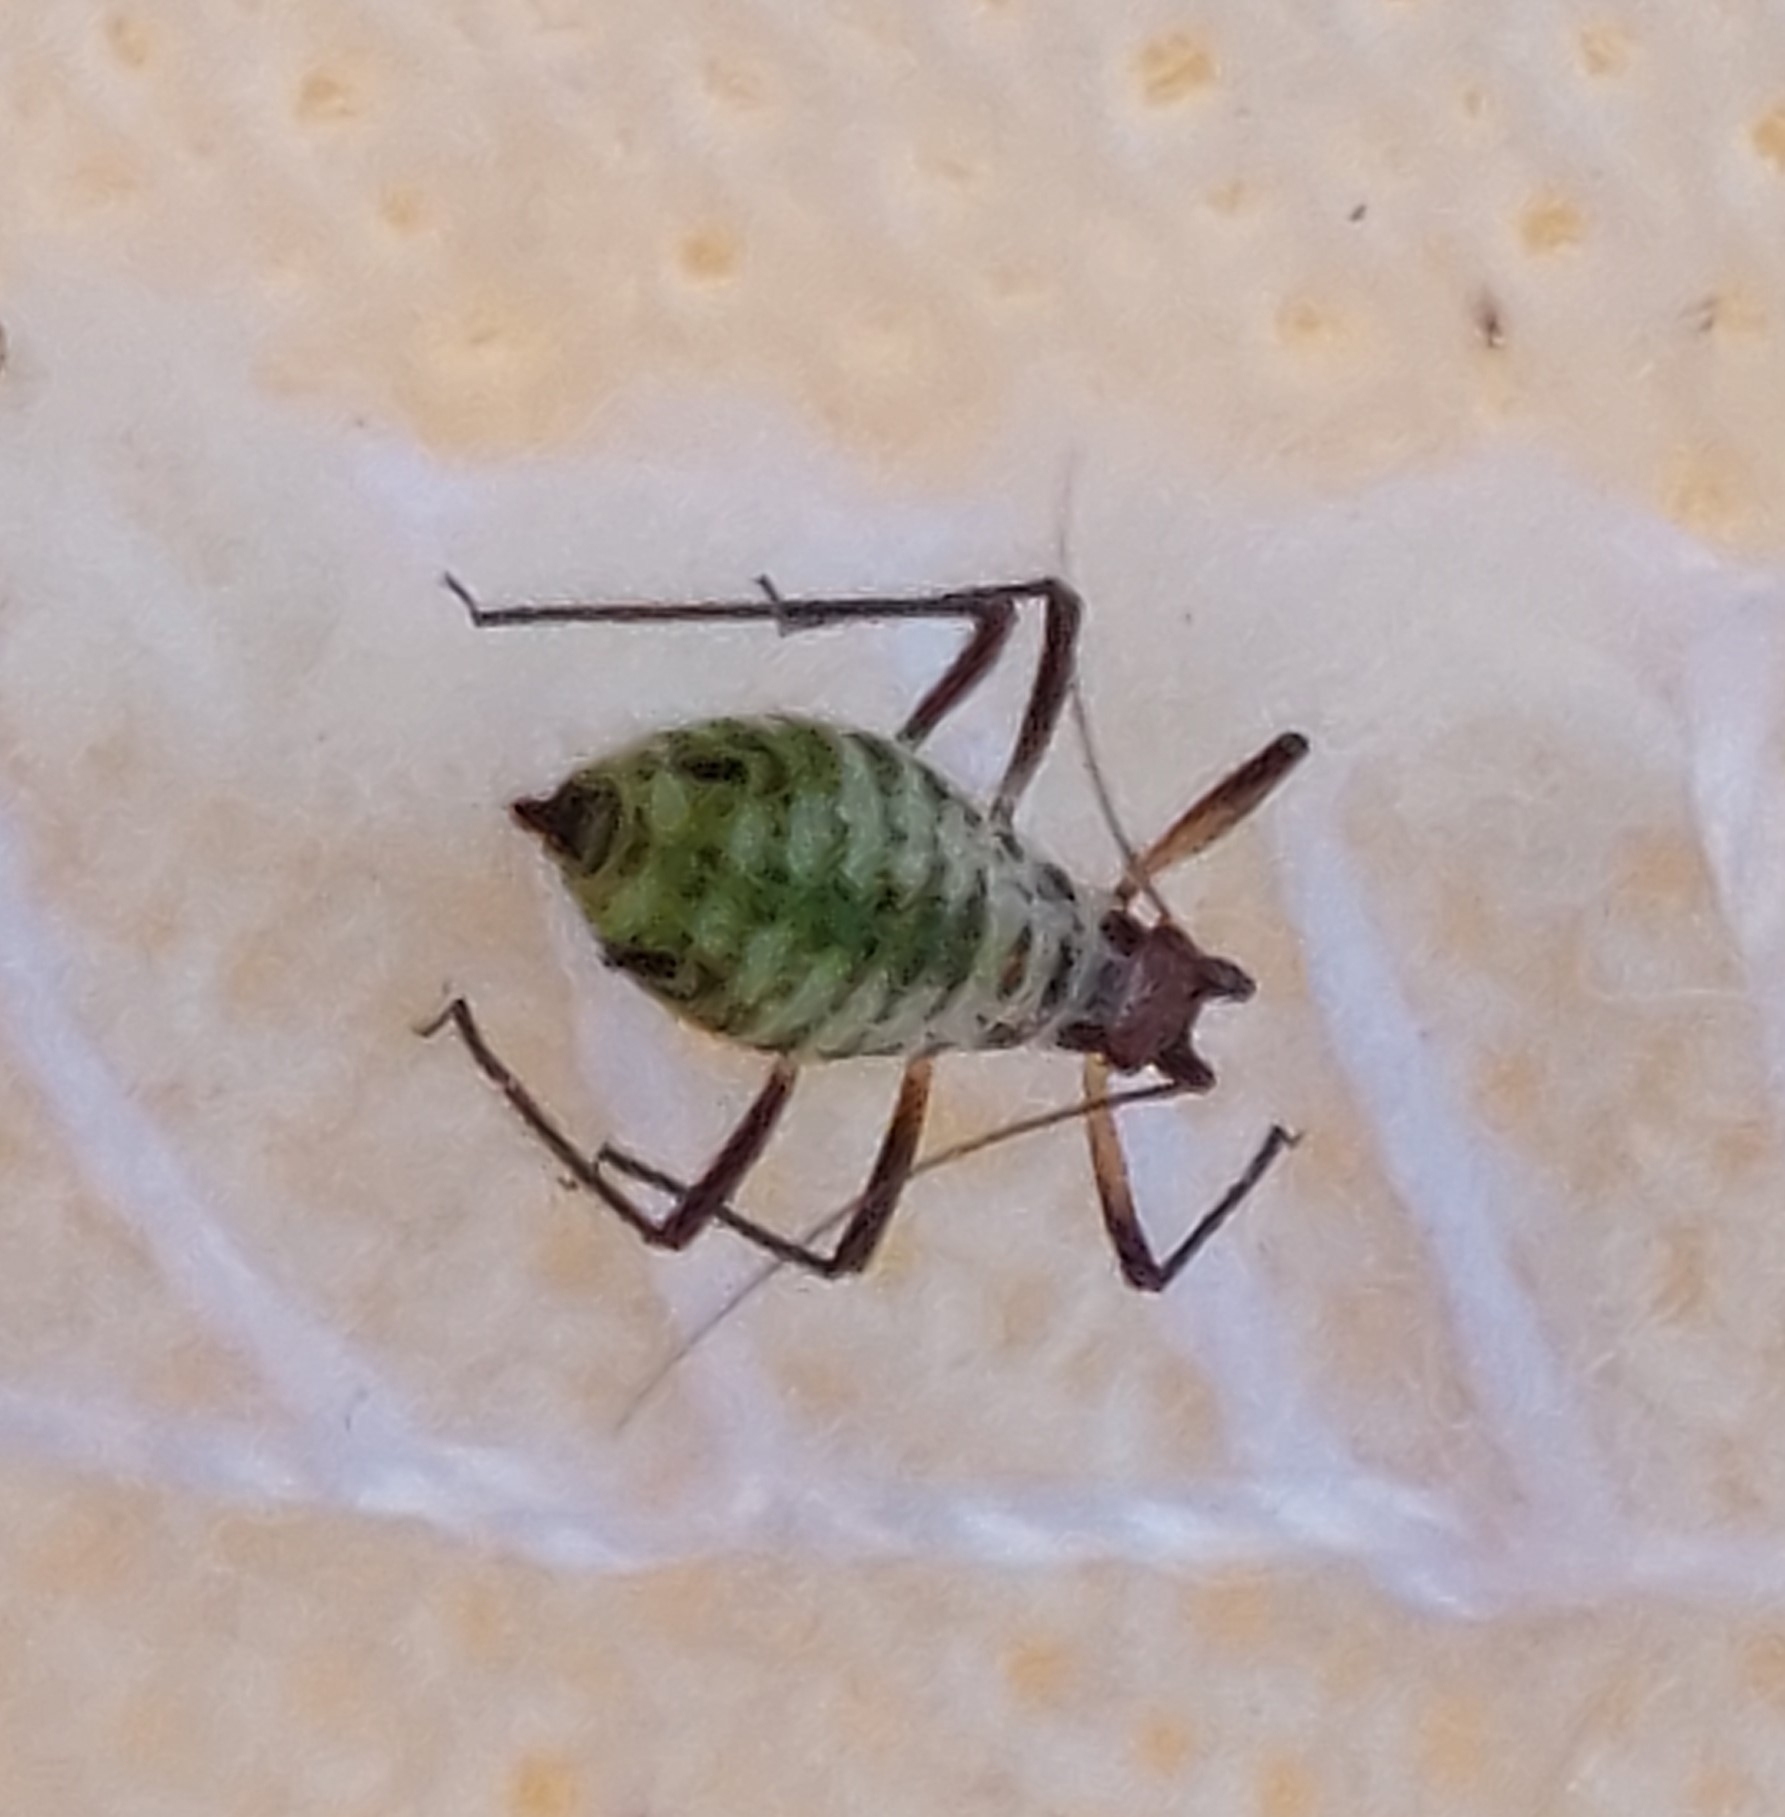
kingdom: Animalia
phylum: Arthropoda
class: Insecta
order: Hemiptera
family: Aphididae
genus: Macrosiphoniella
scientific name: Macrosiphoniella millefolii
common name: Røllikebladlus
